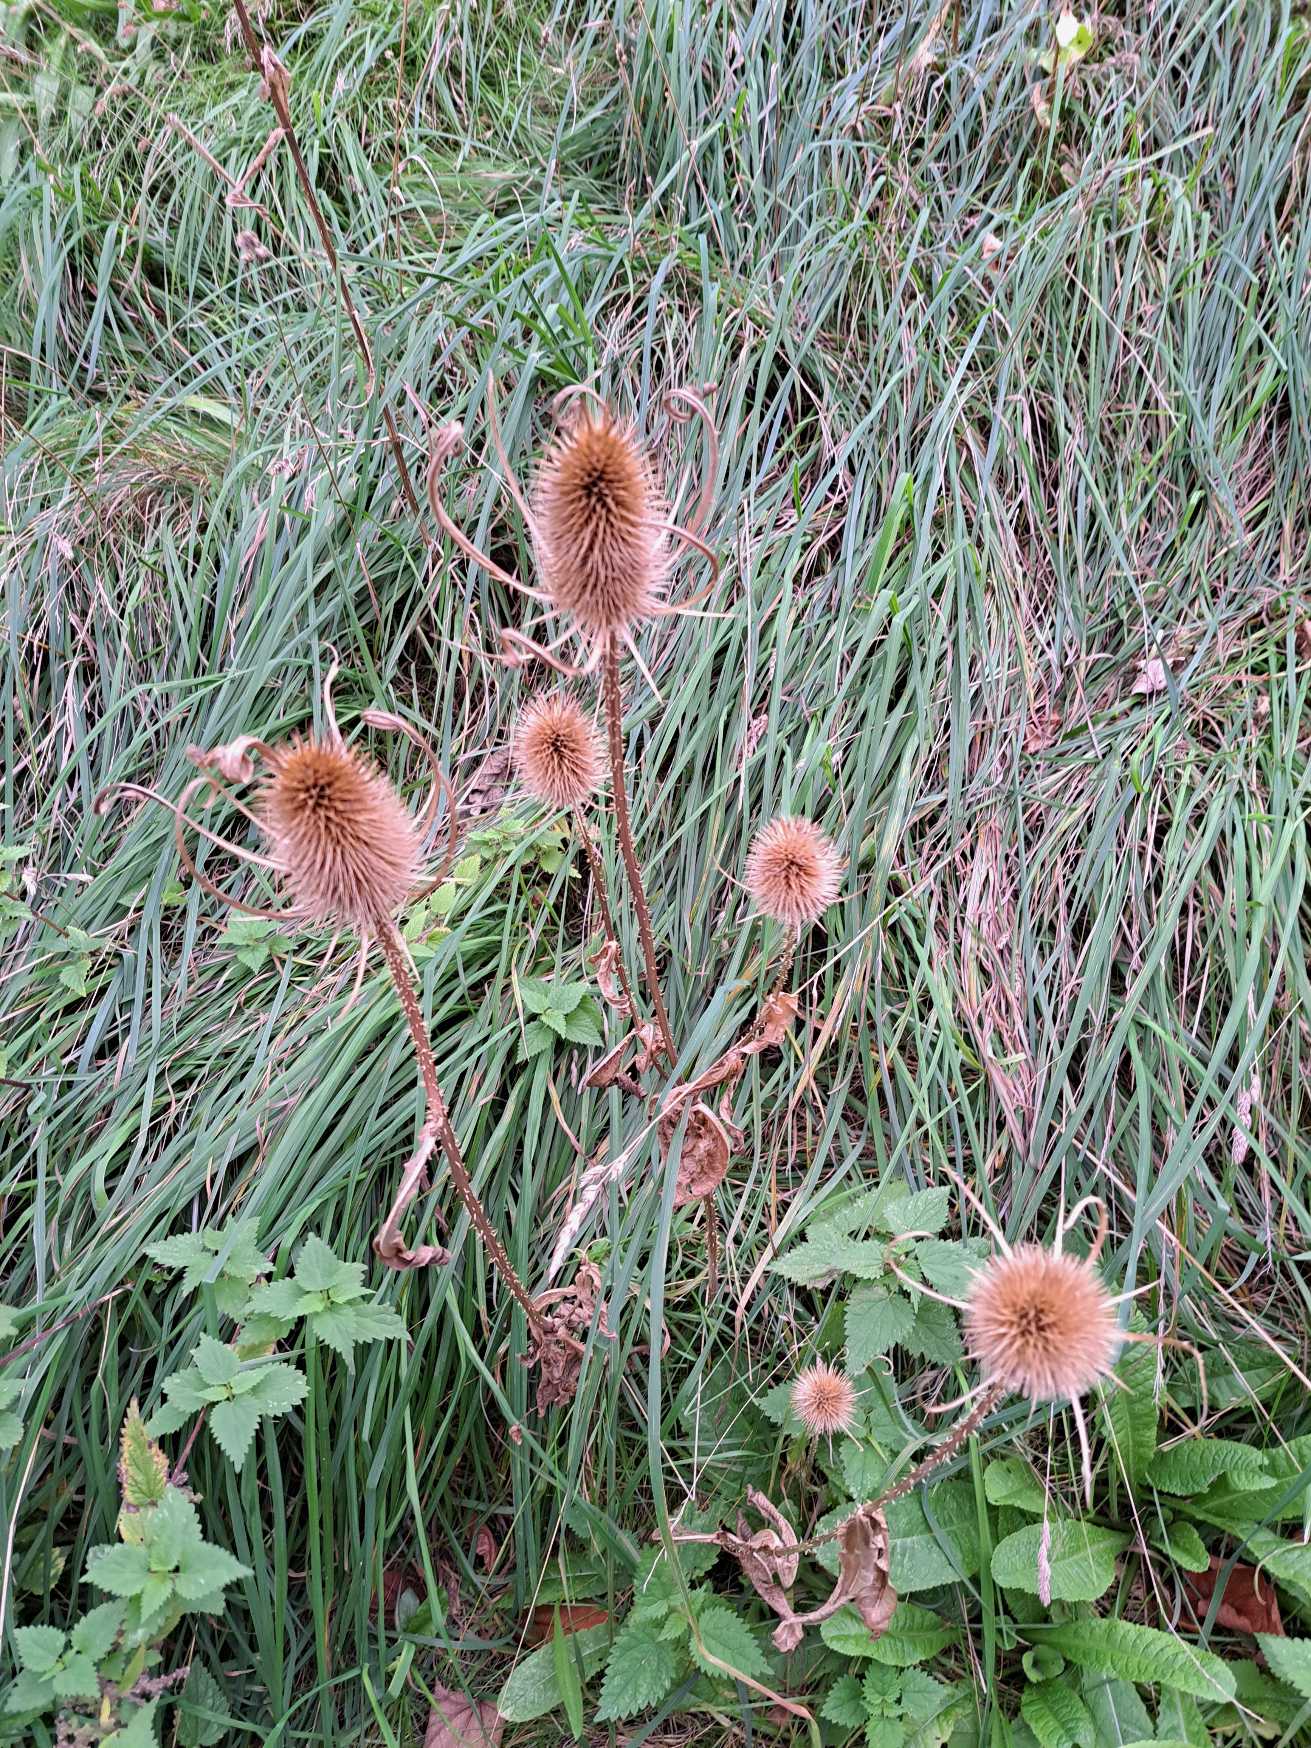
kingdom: Plantae
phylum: Tracheophyta
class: Magnoliopsida
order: Dipsacales
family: Caprifoliaceae
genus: Dipsacus
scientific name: Dipsacus fullonum
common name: Gærde-kartebolle
